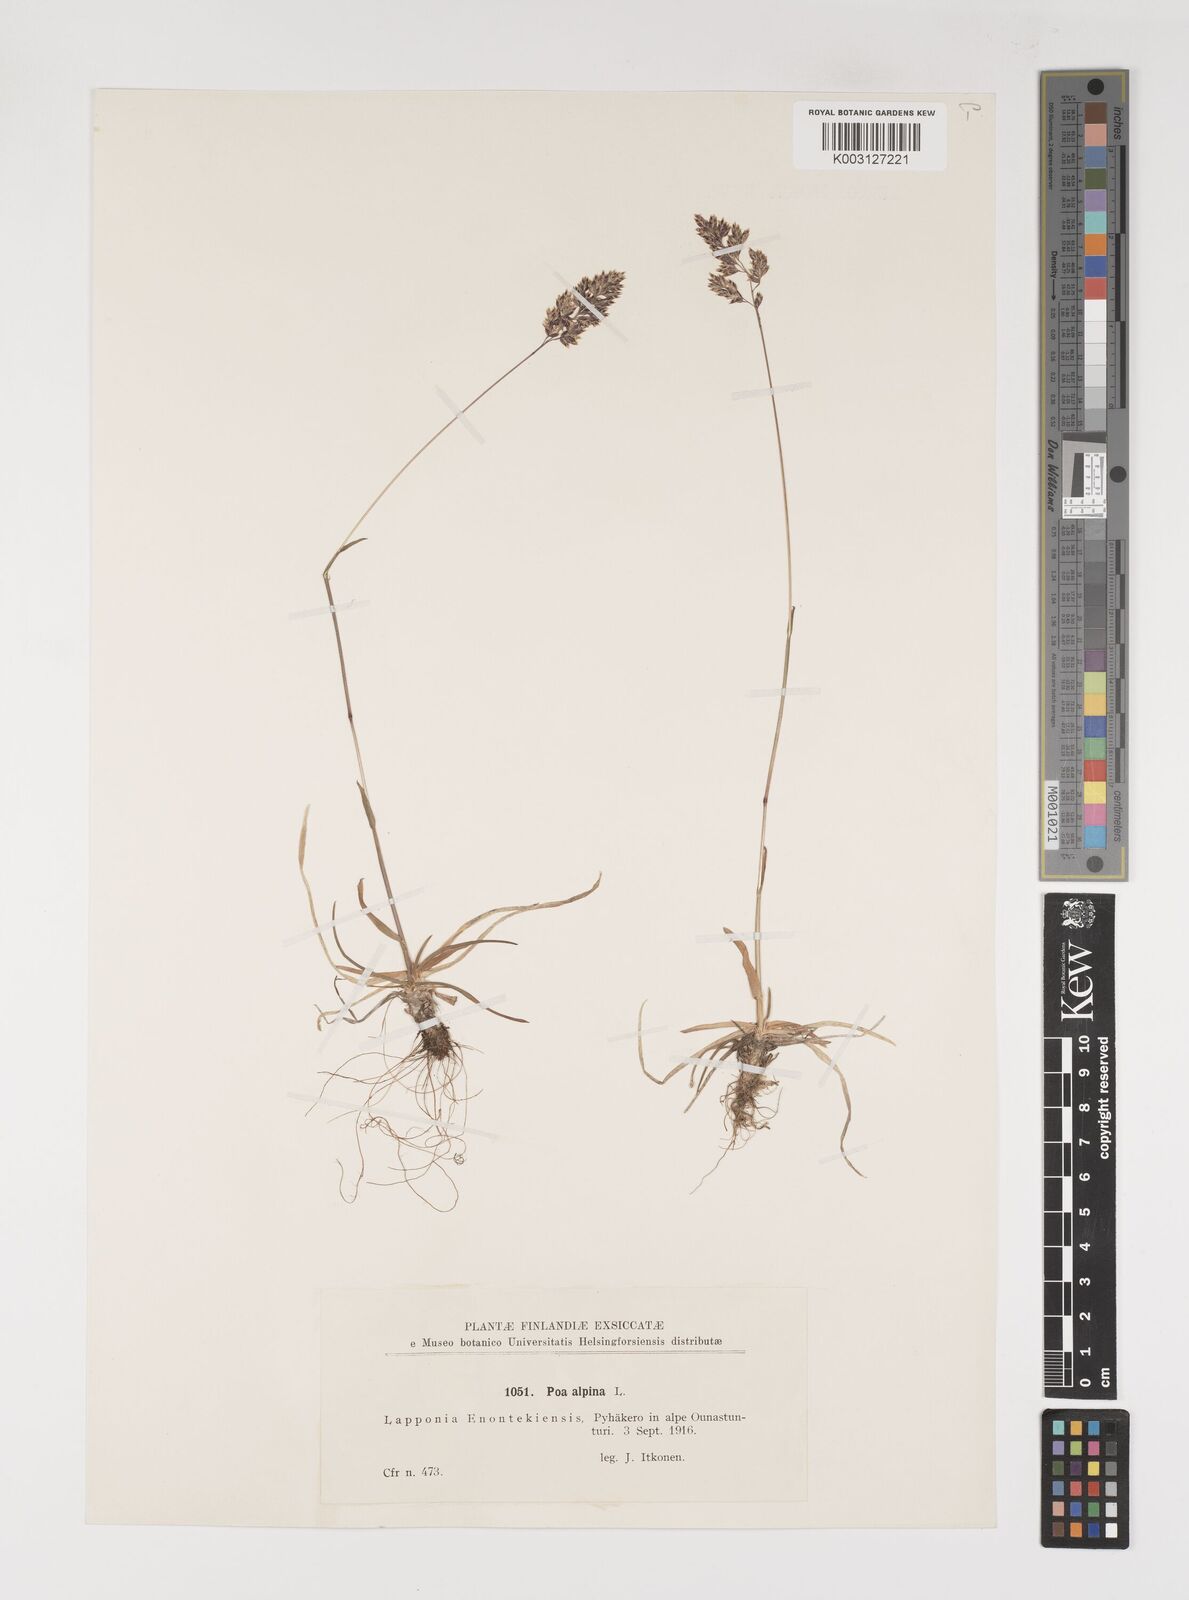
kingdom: Plantae
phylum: Tracheophyta
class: Liliopsida
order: Poales
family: Poaceae
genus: Poa
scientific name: Poa alpina
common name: Alpine bluegrass
